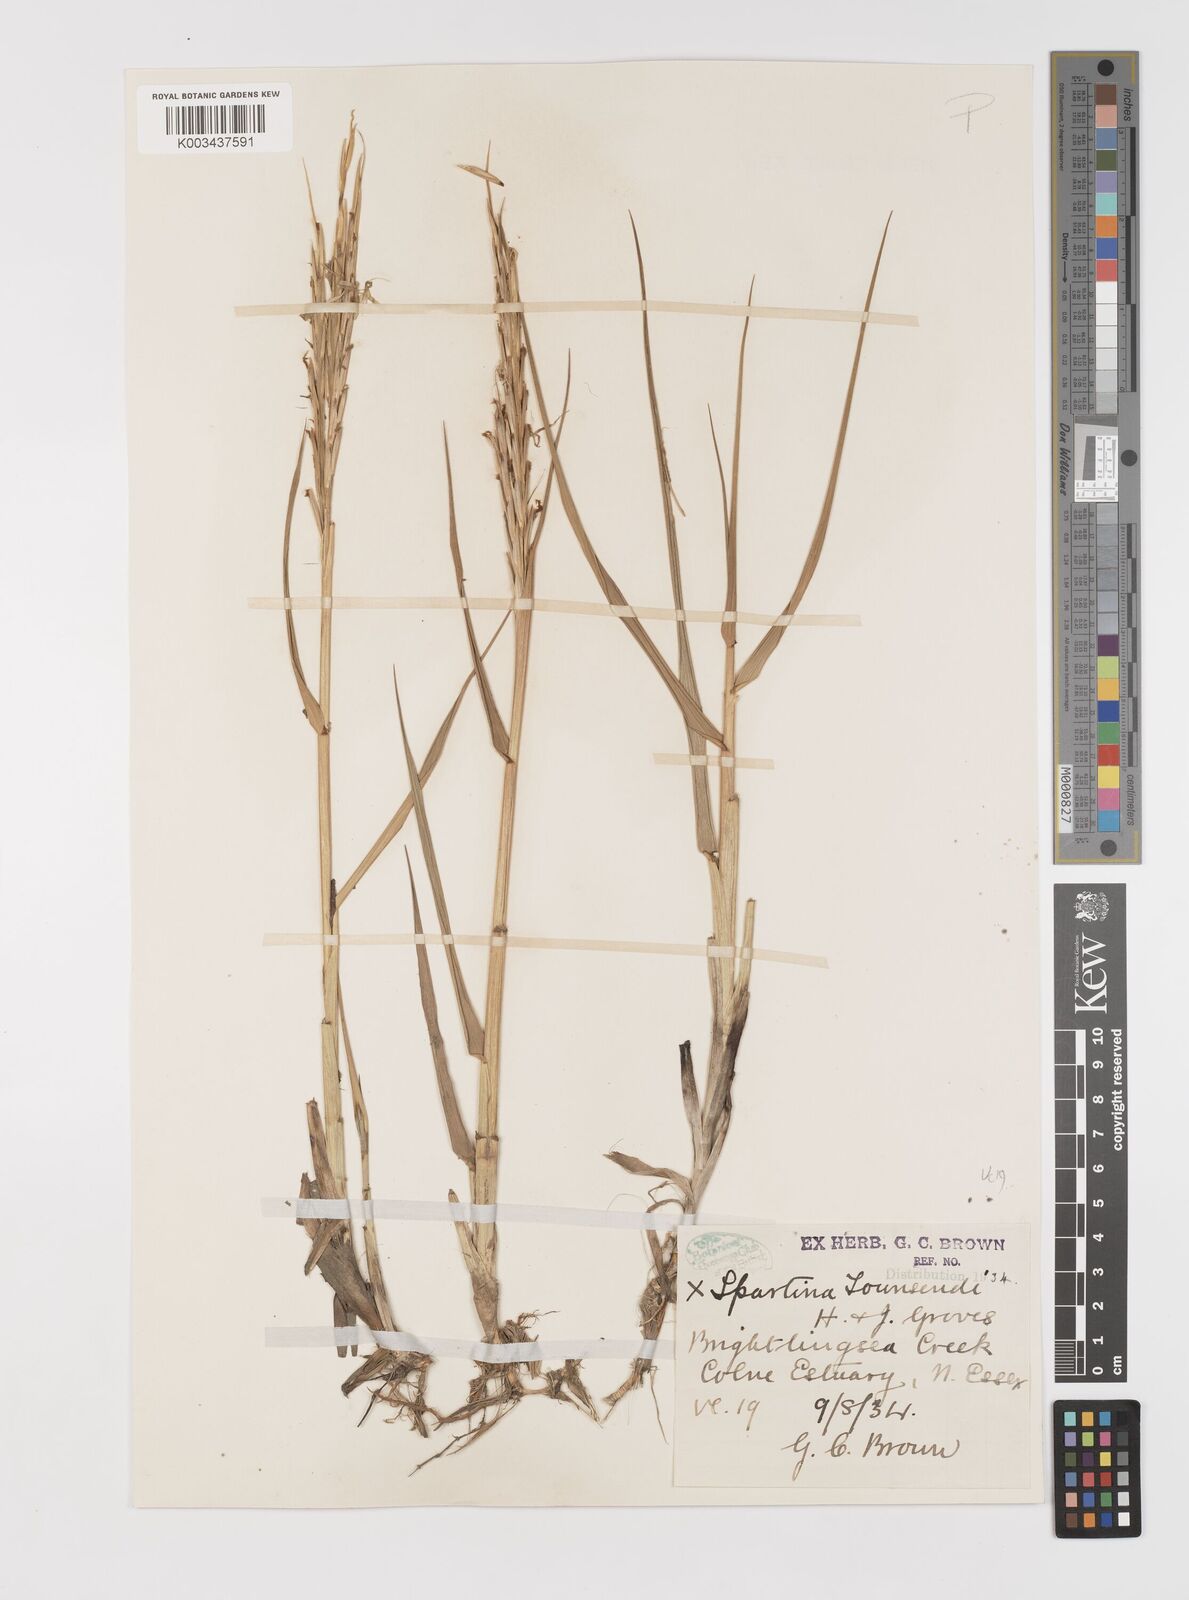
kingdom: Plantae
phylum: Tracheophyta
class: Liliopsida
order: Poales
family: Poaceae
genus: Sporobolus
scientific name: Sporobolus anglicus
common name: English cordgrass
